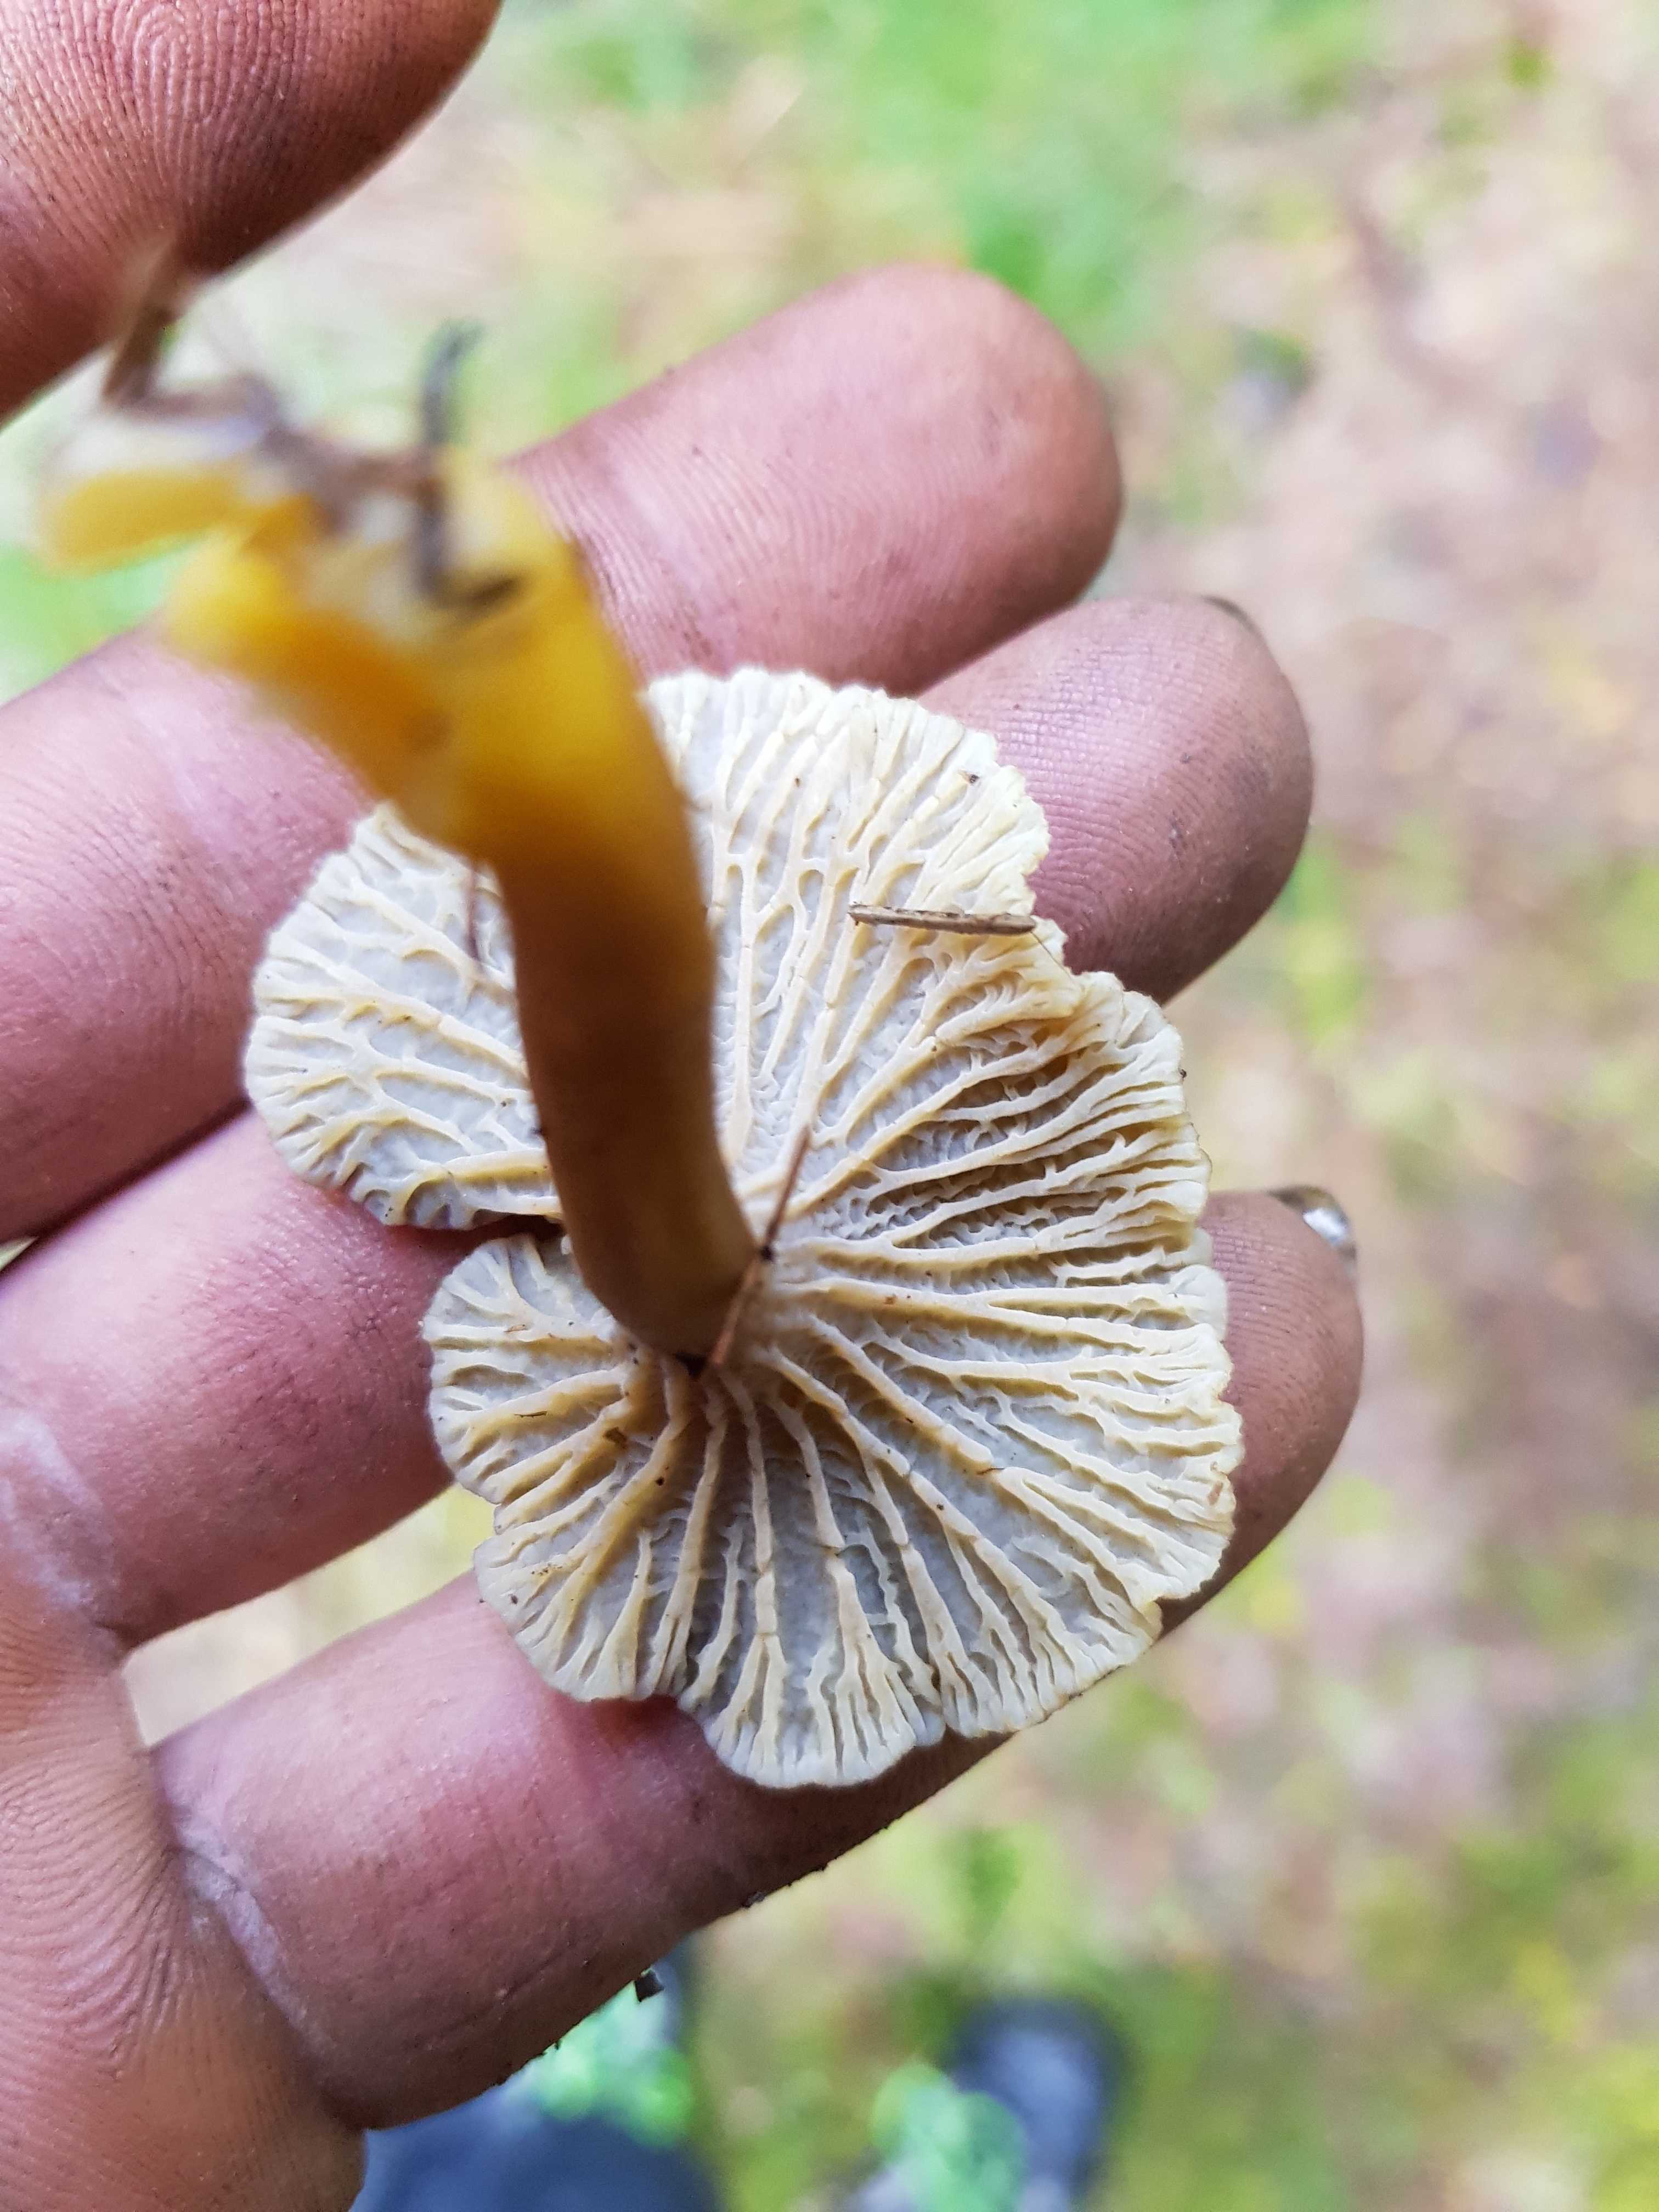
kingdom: Fungi
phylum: Basidiomycota
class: Agaricomycetes
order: Cantharellales
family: Hydnaceae
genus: Craterellus
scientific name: Craterellus tubaeformis
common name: tragt-kantarel
